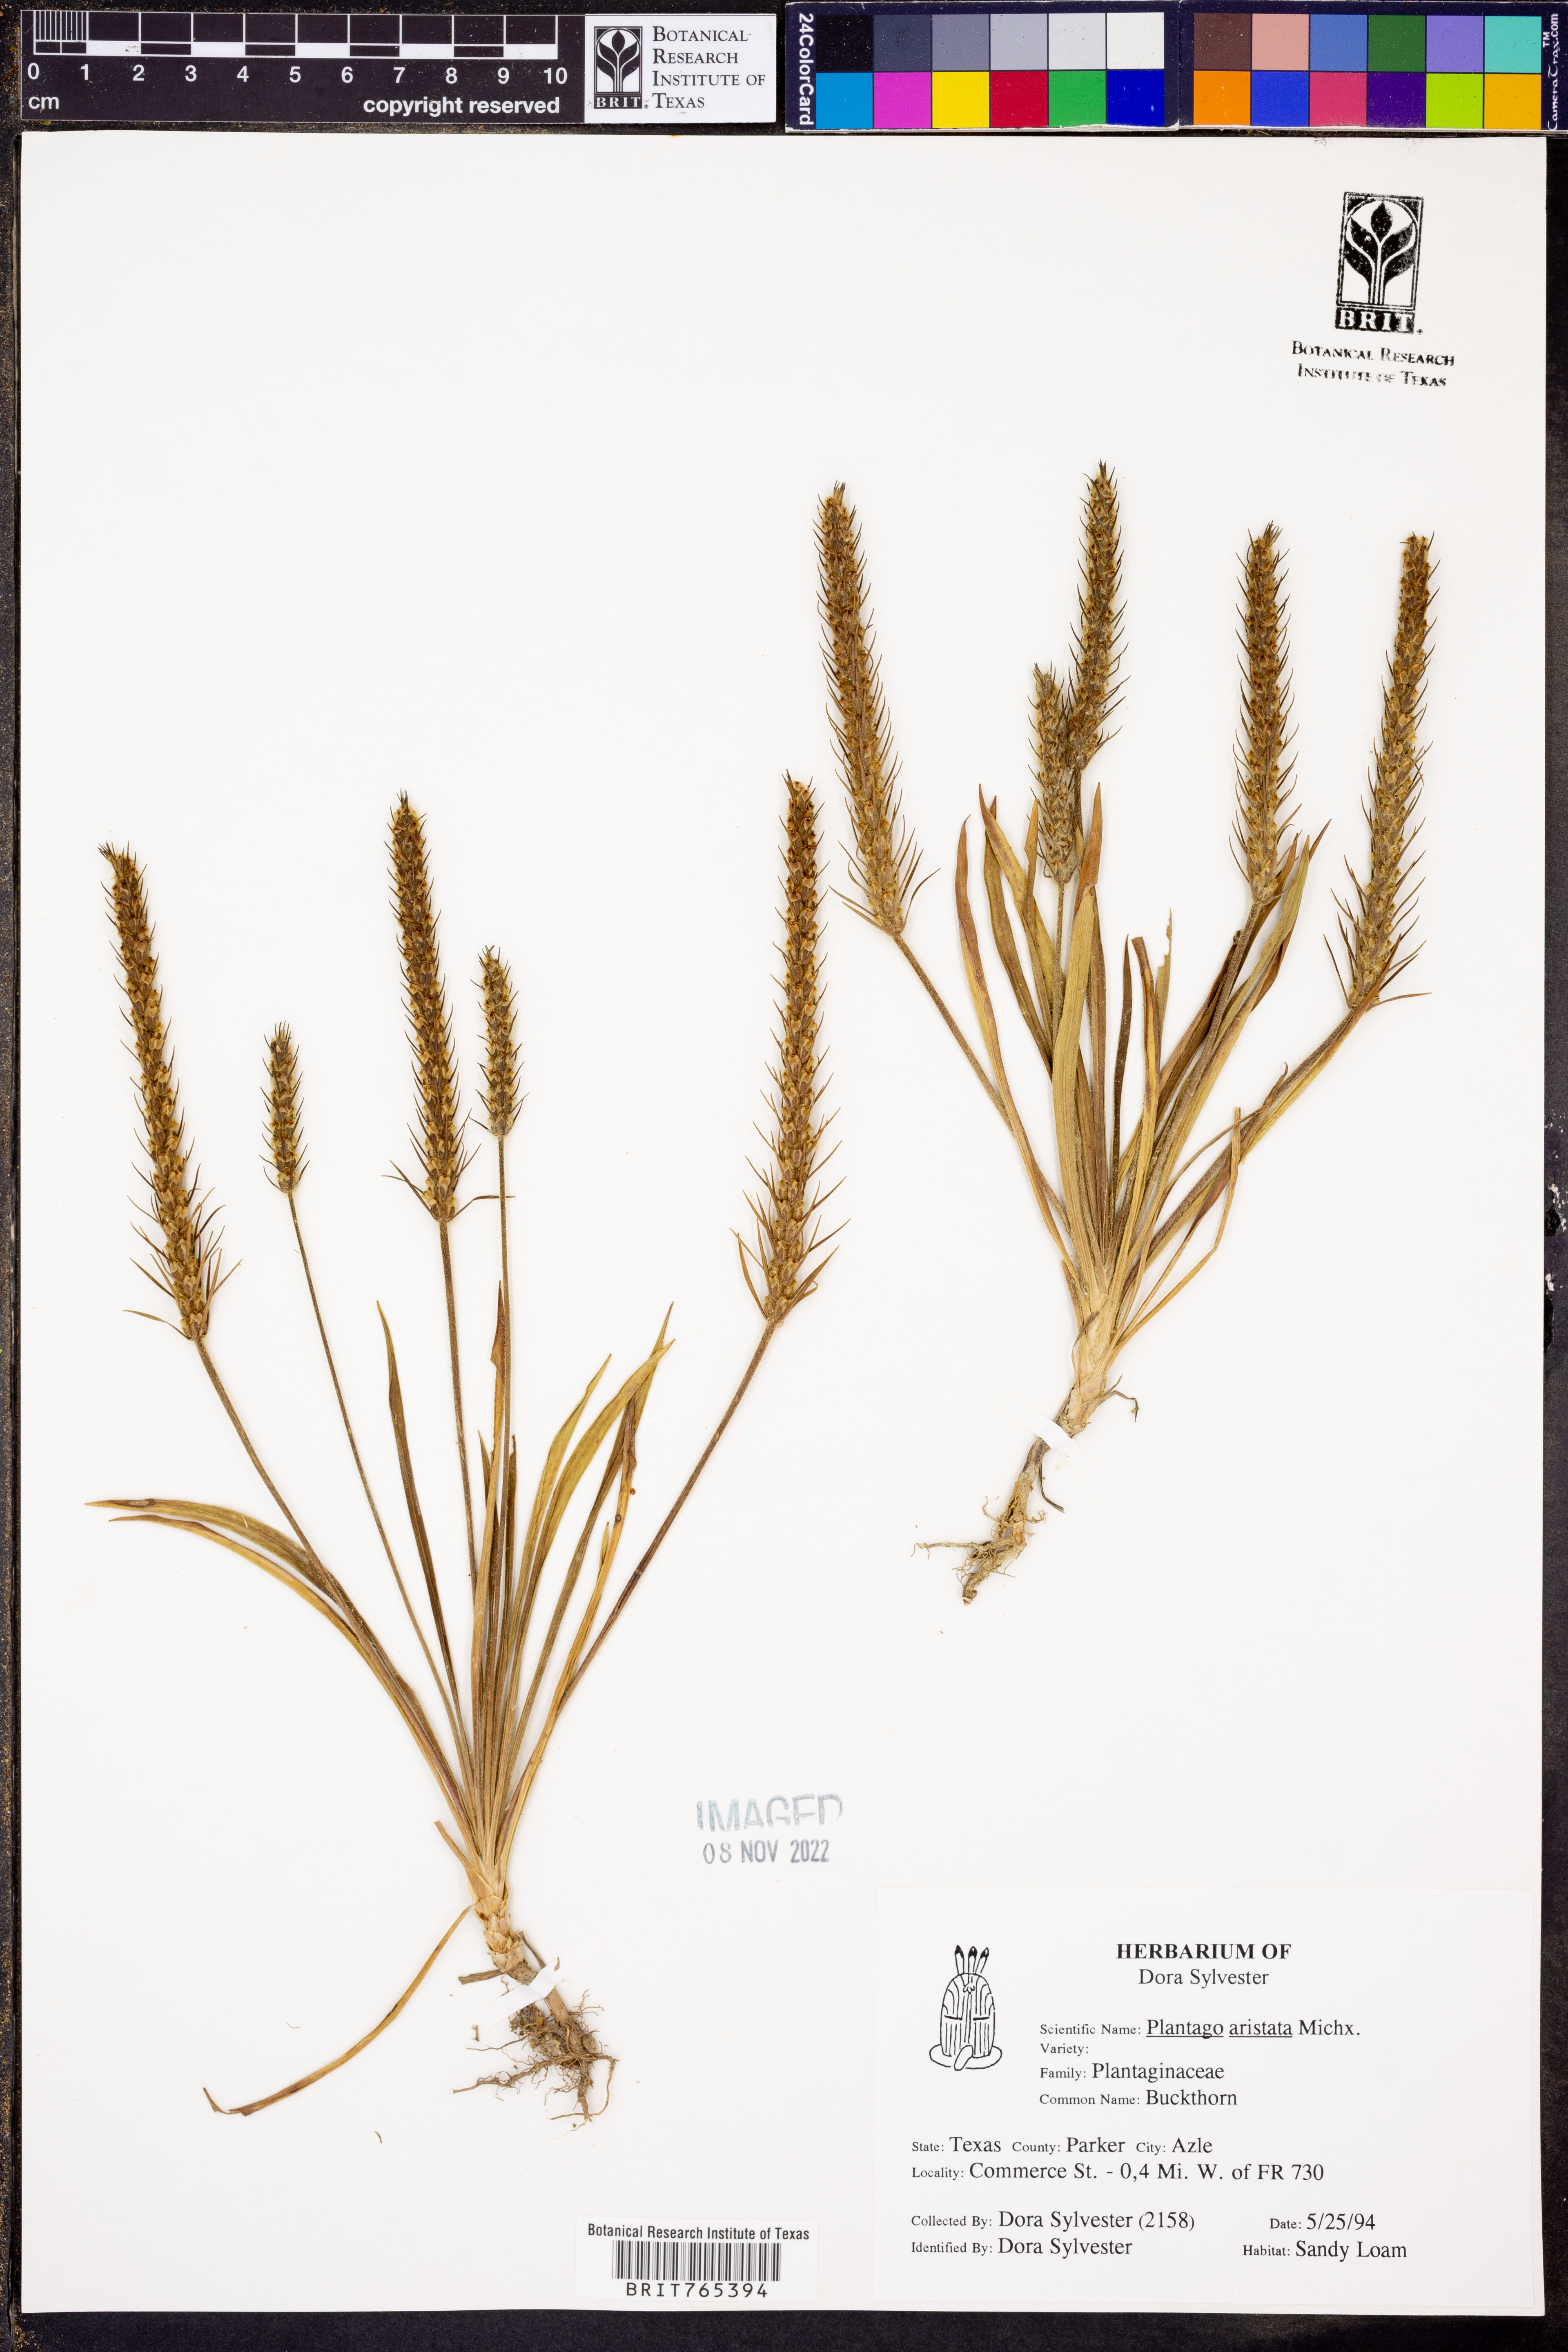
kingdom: Plantae
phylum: Tracheophyta
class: Magnoliopsida
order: Lamiales
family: Plantaginaceae
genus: Plantago
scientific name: Plantago aristata
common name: Bracted plantain
